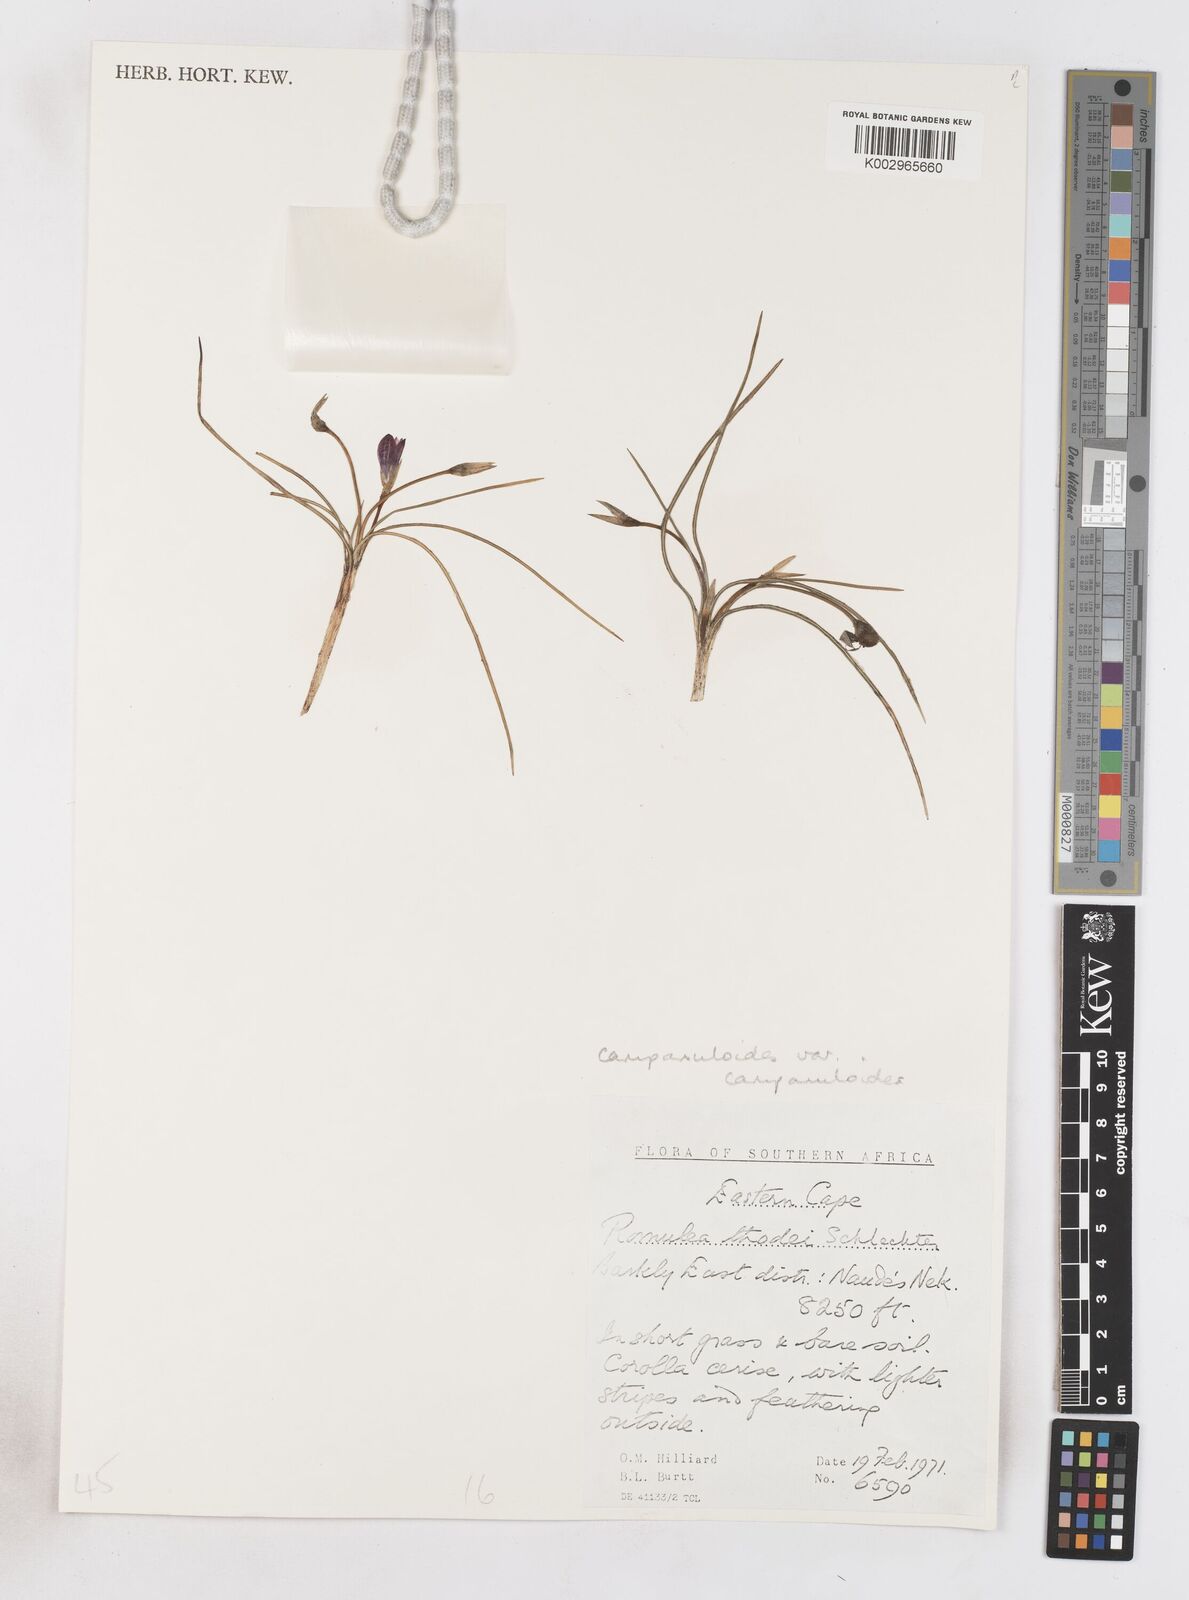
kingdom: Plantae
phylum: Tracheophyta
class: Liliopsida
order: Asparagales
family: Iridaceae
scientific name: Iridaceae
